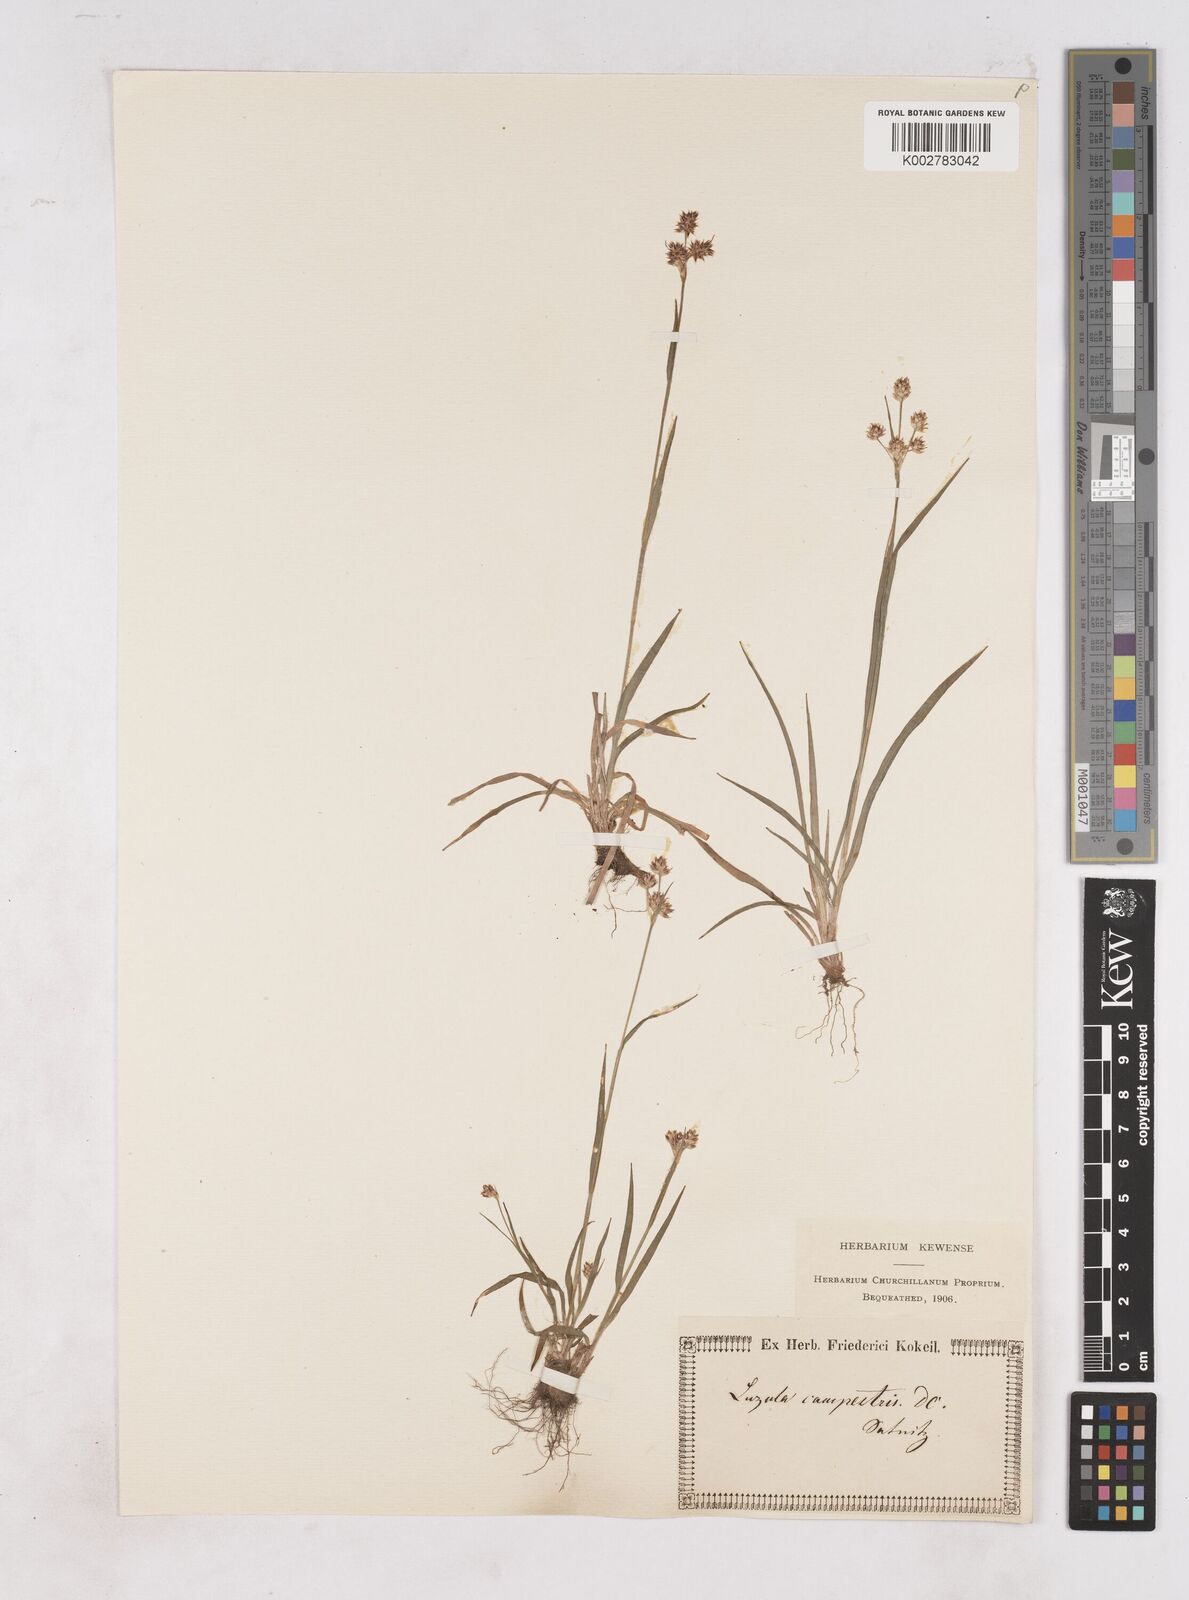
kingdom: Plantae
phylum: Tracheophyta
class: Liliopsida
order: Poales
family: Juncaceae
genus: Luzula
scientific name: Luzula campestris
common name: Field wood-rush
